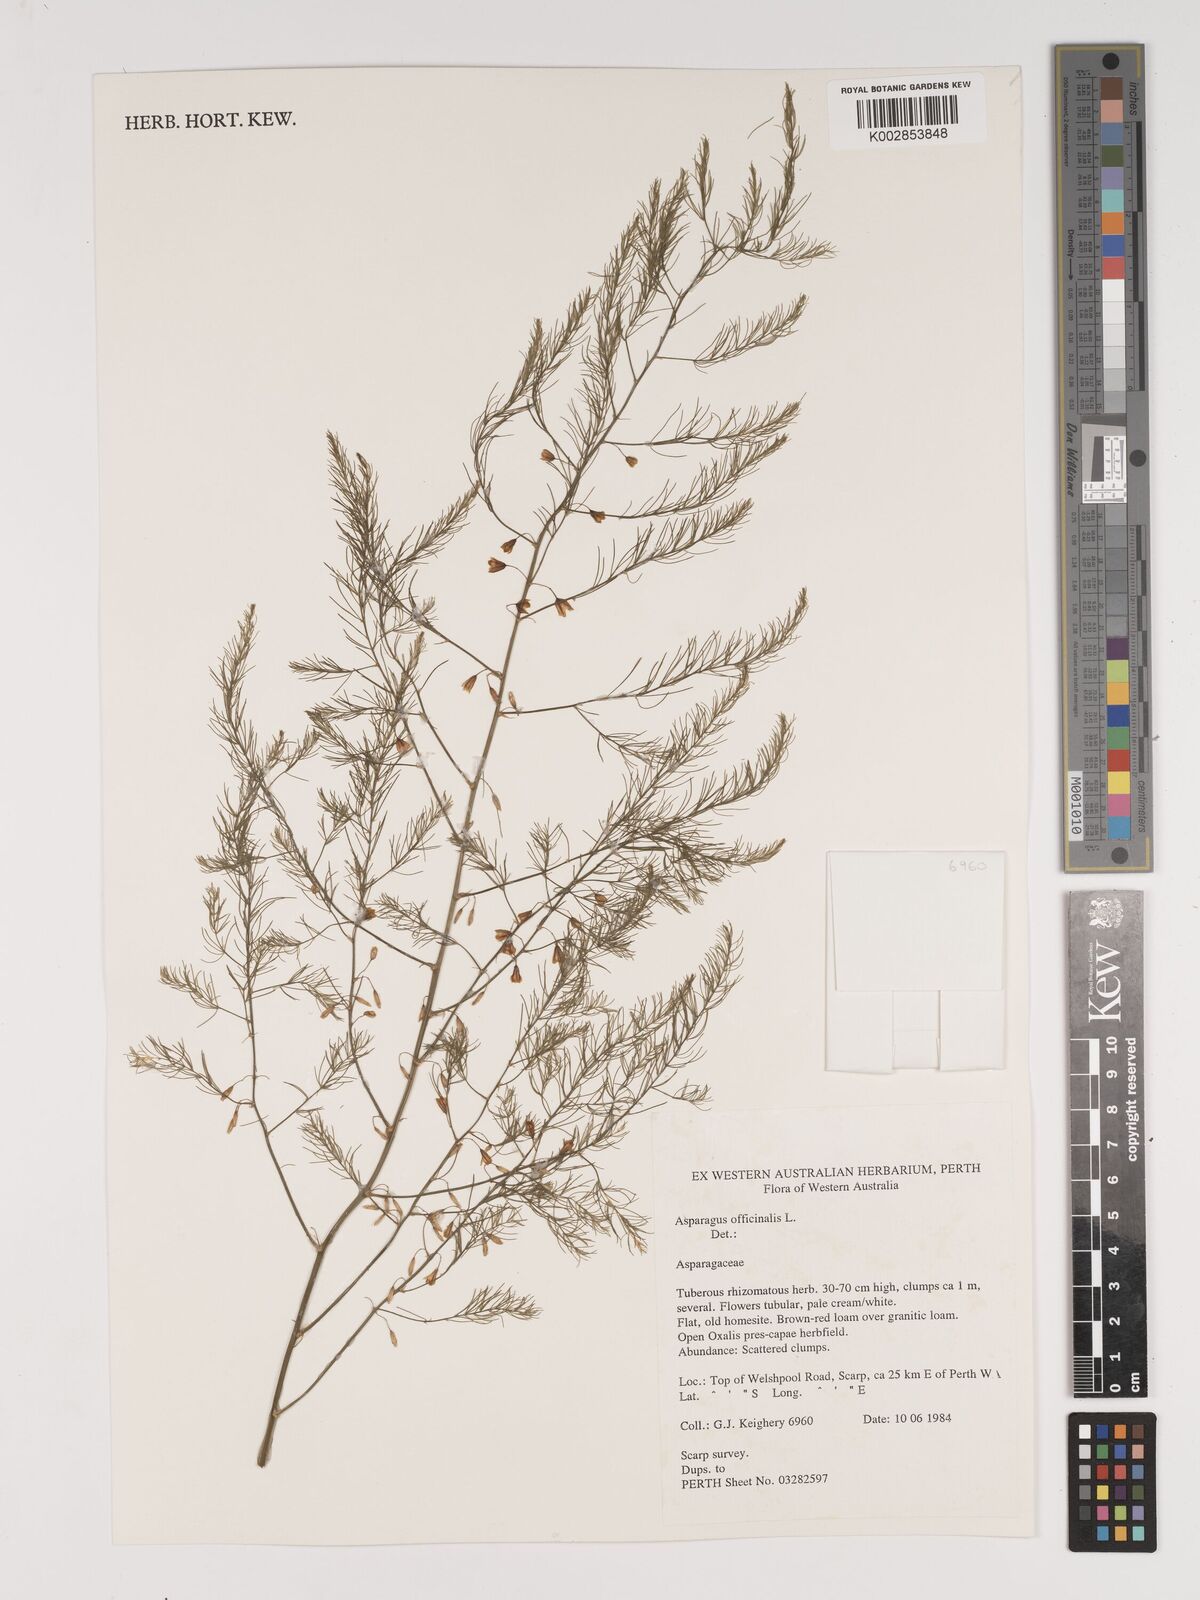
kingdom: Plantae
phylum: Tracheophyta
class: Liliopsida
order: Asparagales
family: Asparagaceae
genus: Asparagus
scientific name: Asparagus officinalis
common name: Garden asparagus
